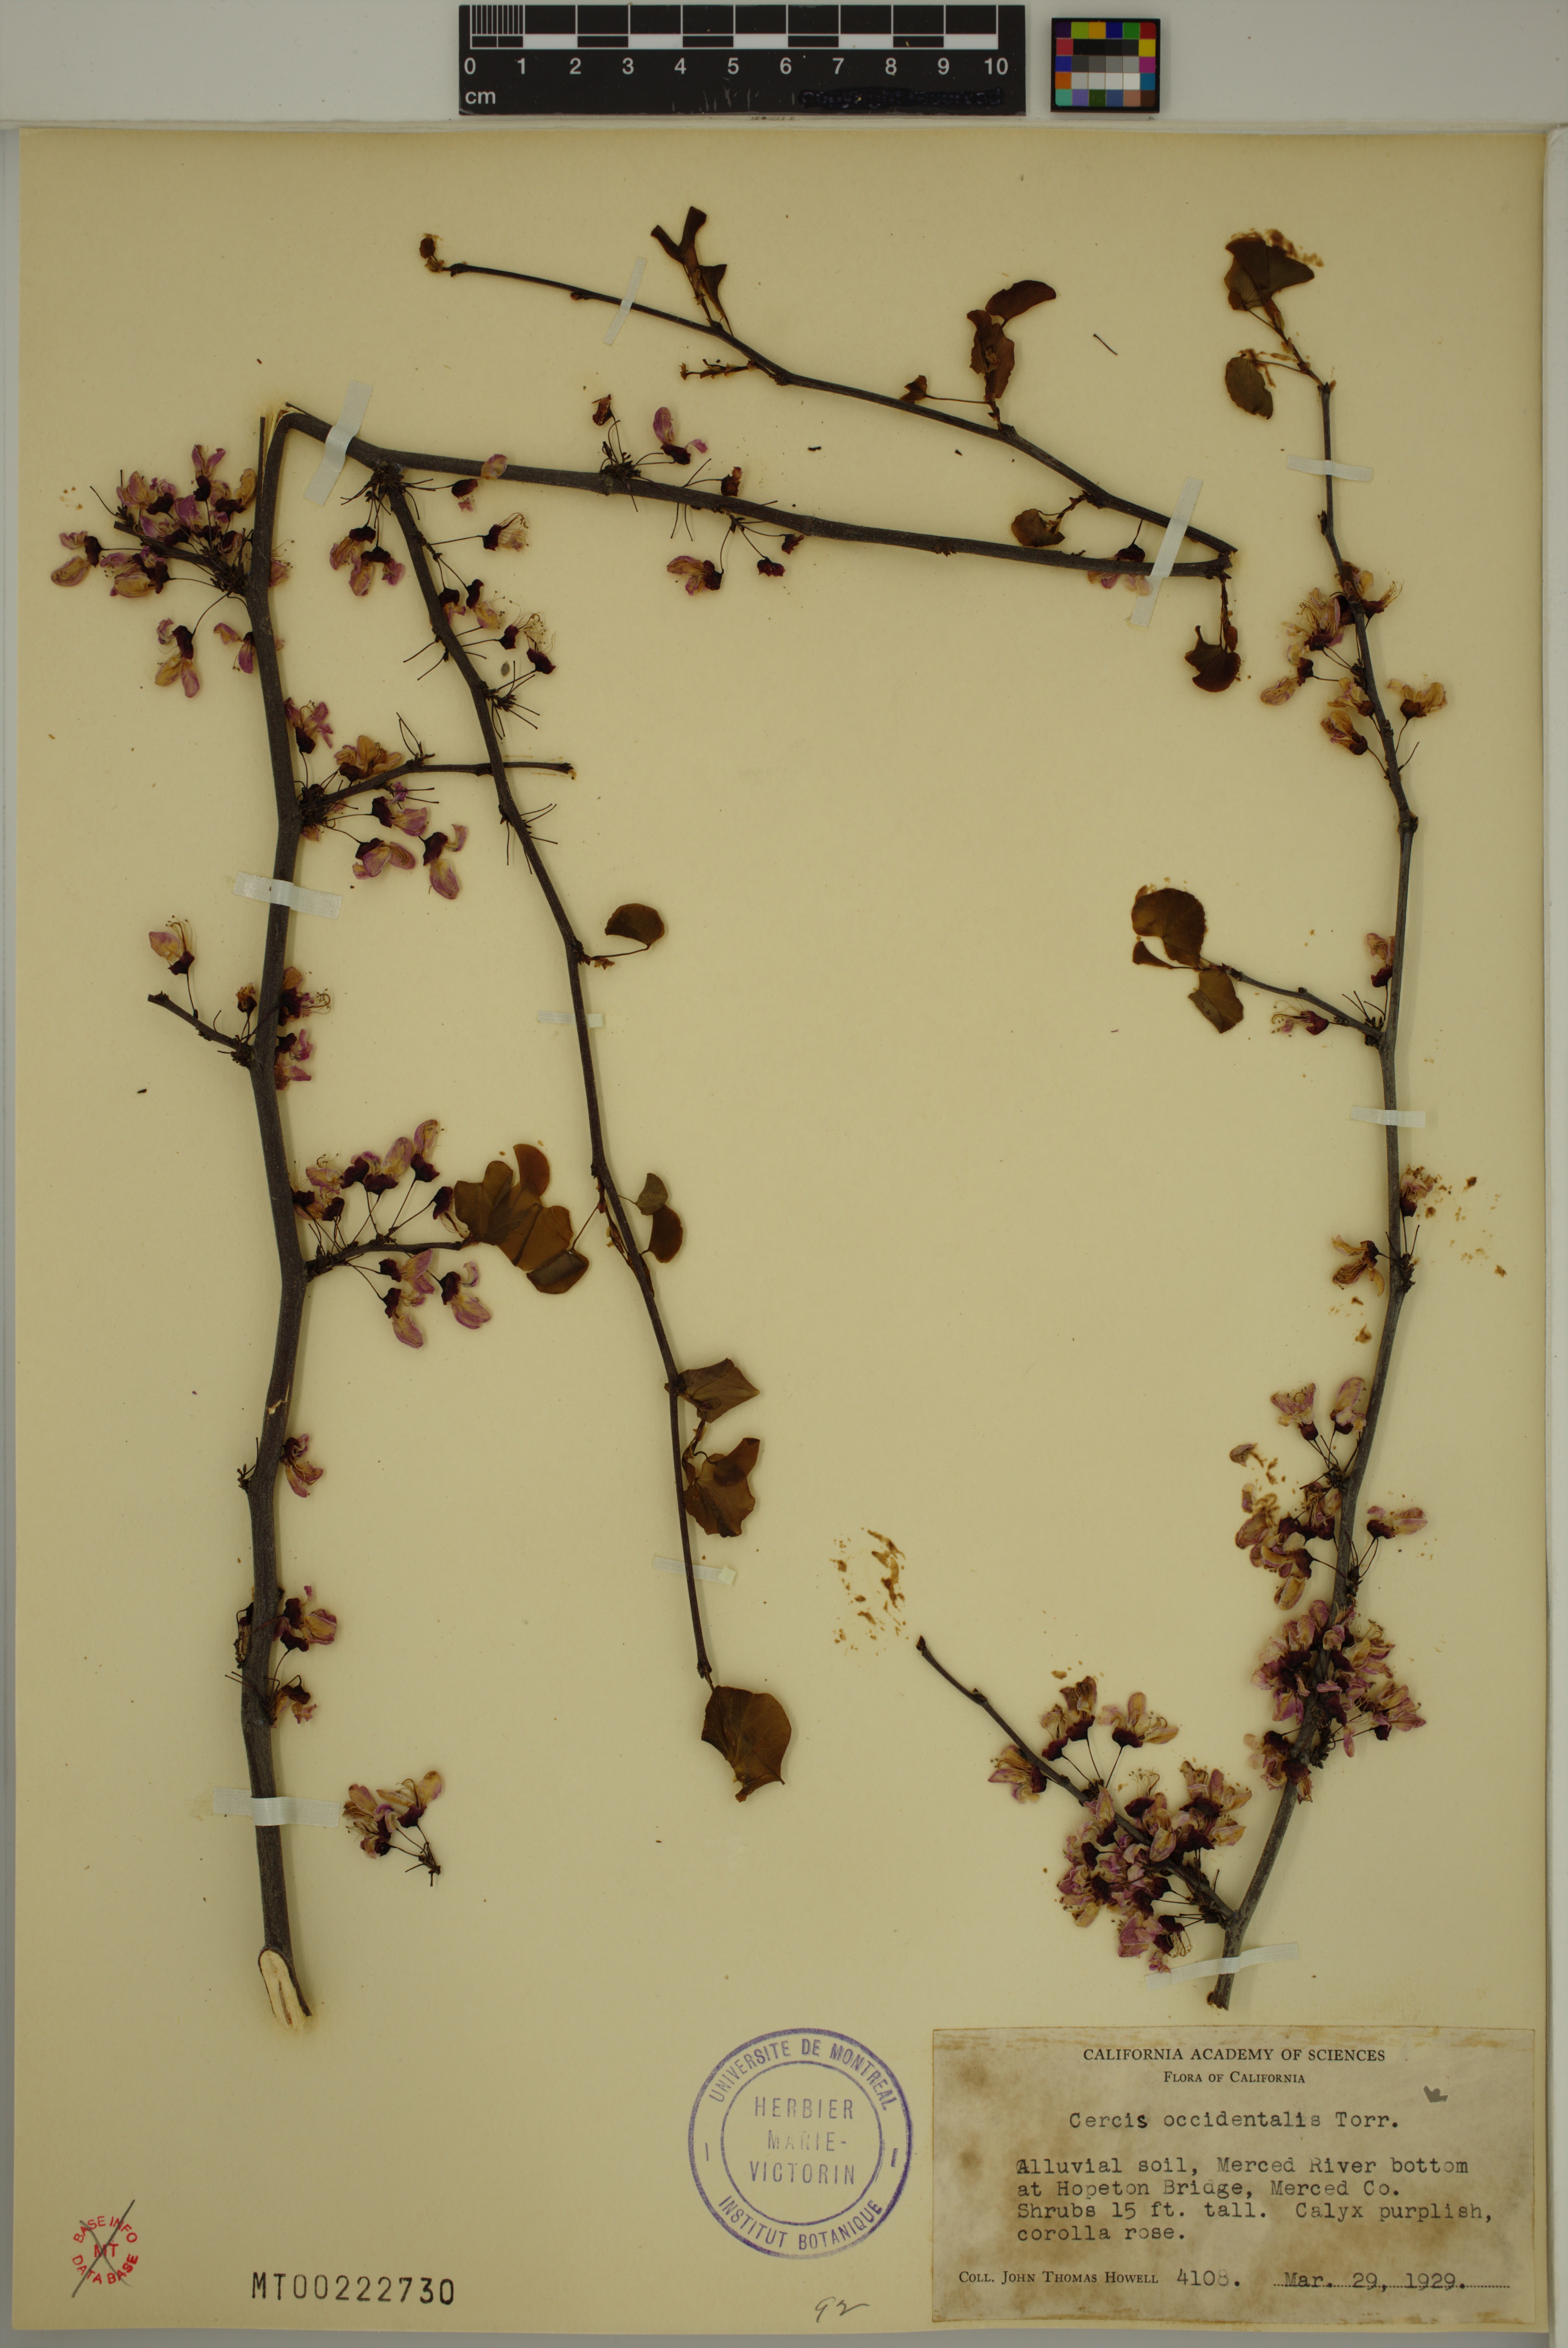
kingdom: Plantae
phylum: Tracheophyta
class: Magnoliopsida
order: Fabales
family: Fabaceae
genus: Cercis
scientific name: Cercis occidentalis
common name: California redbud
